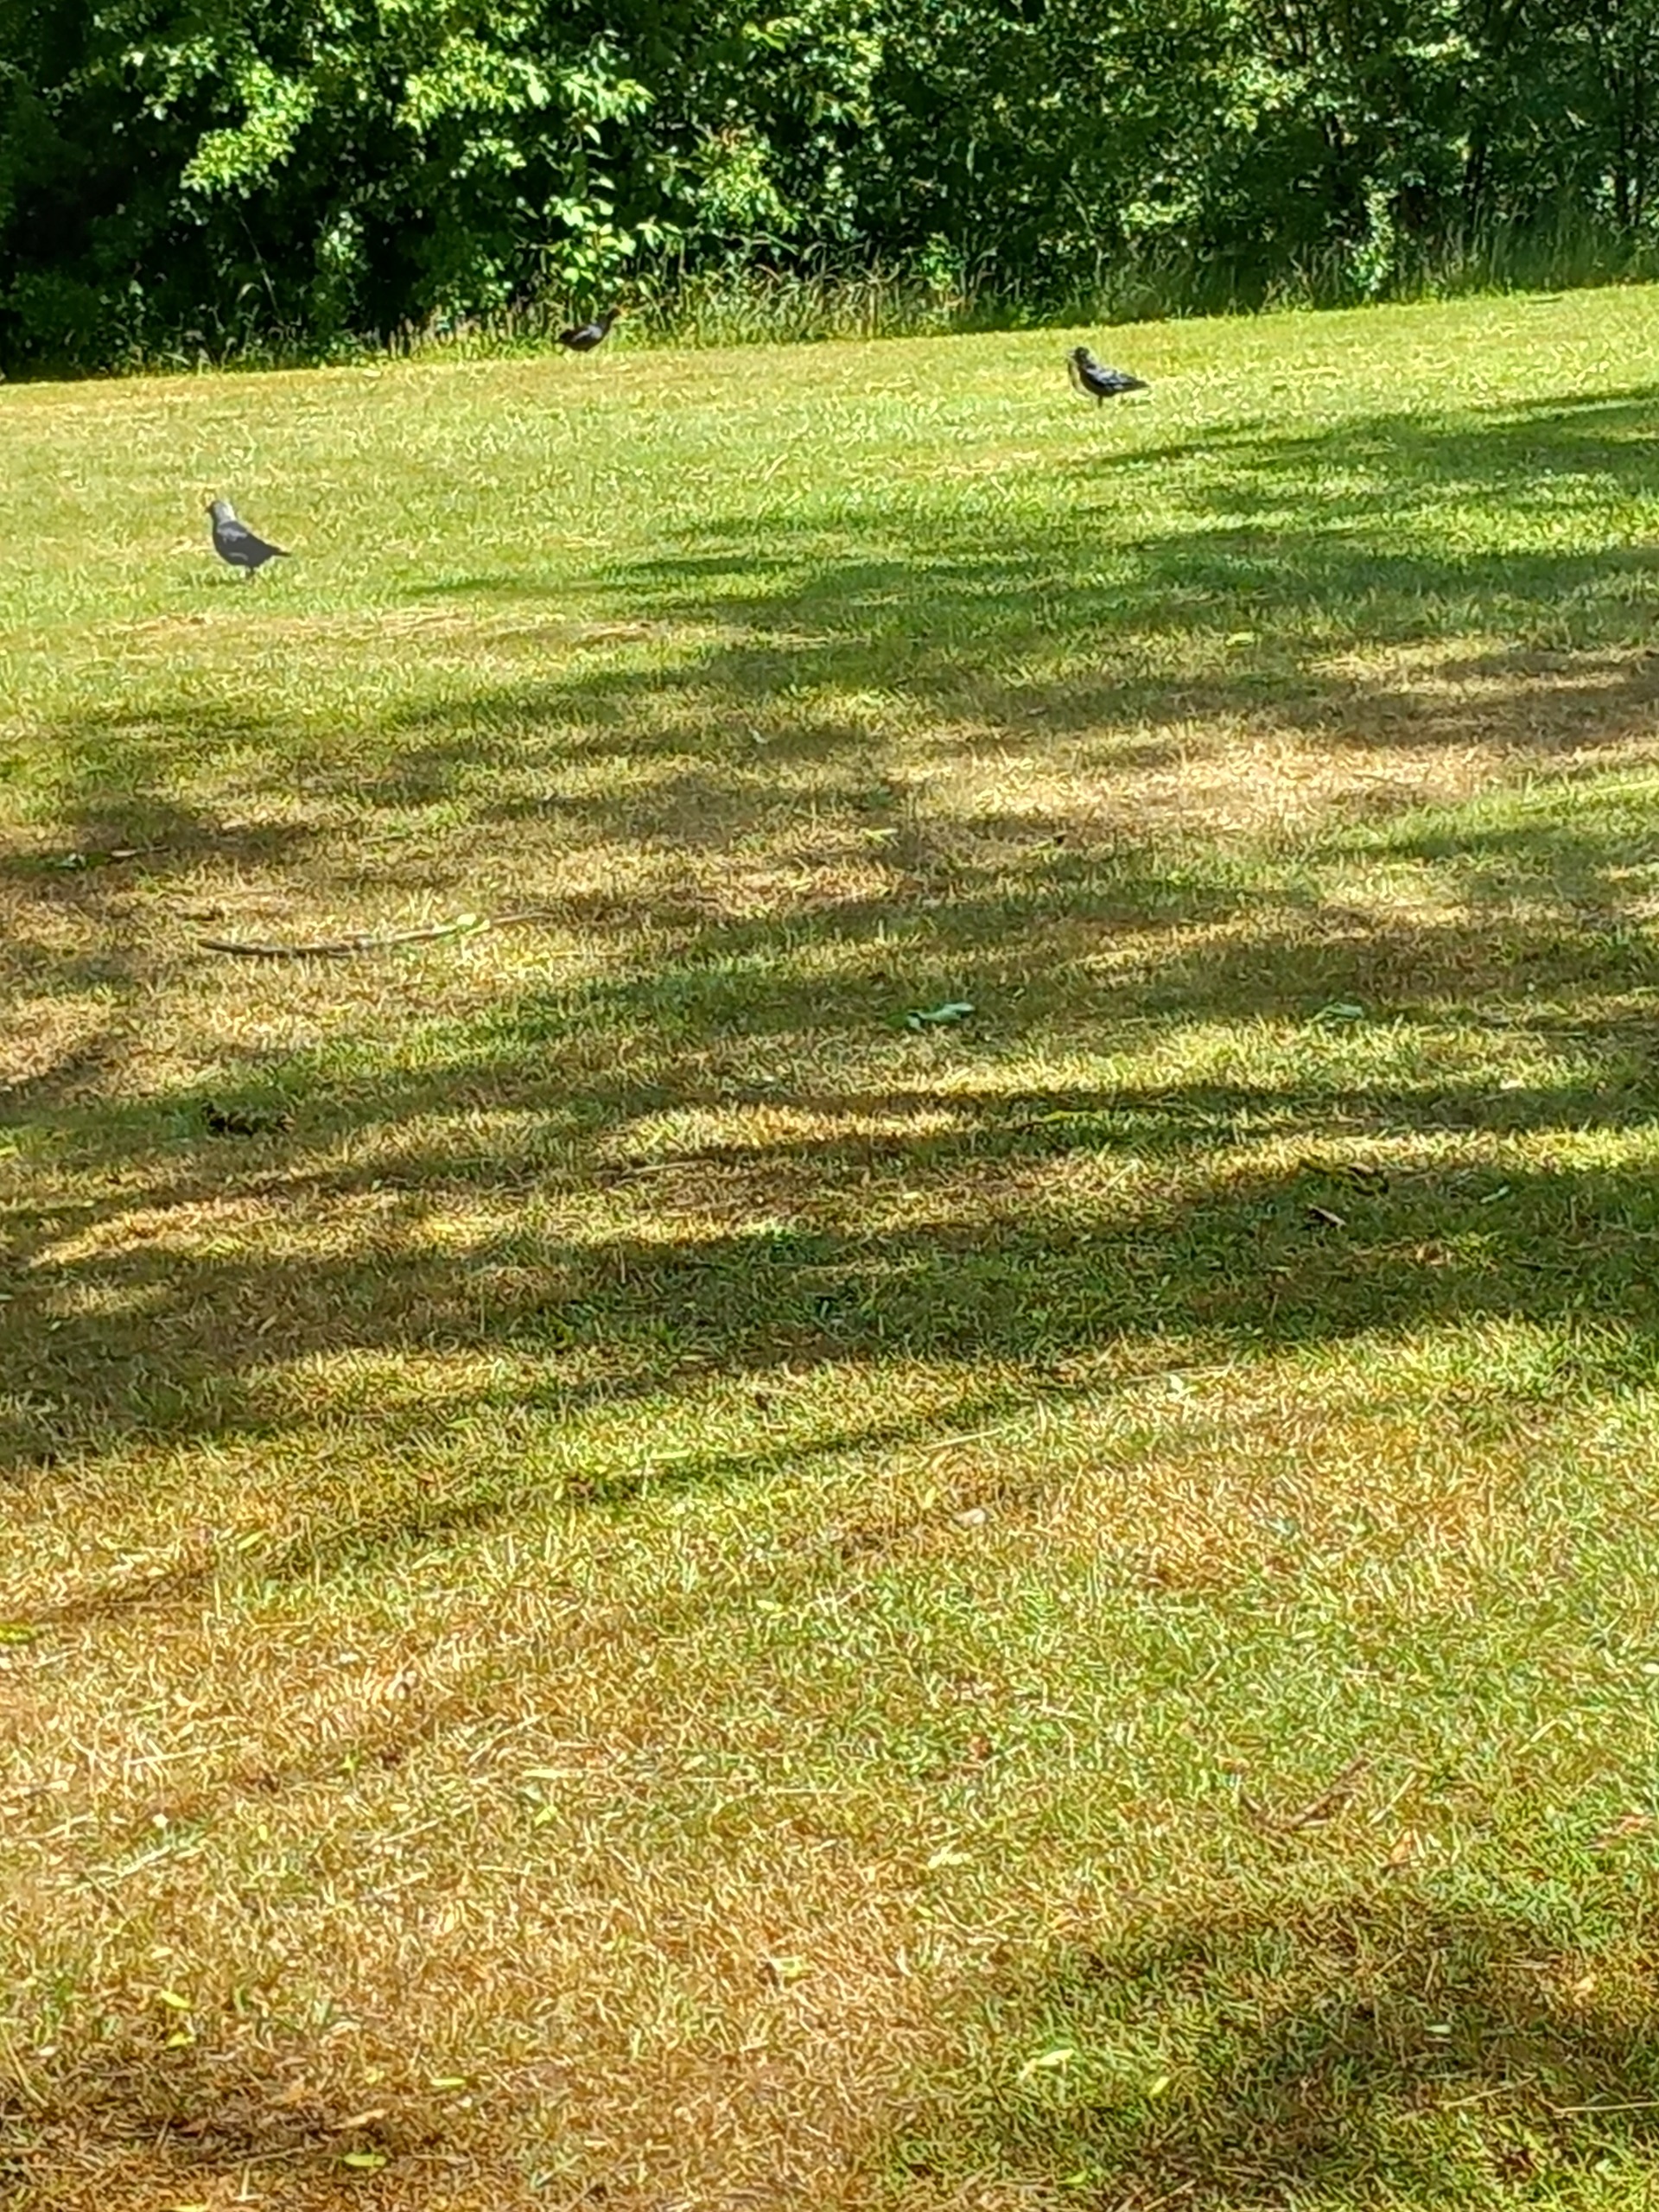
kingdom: Animalia
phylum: Chordata
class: Aves
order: Passeriformes
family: Corvidae
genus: Coloeus
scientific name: Coloeus monedula
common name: Allike
